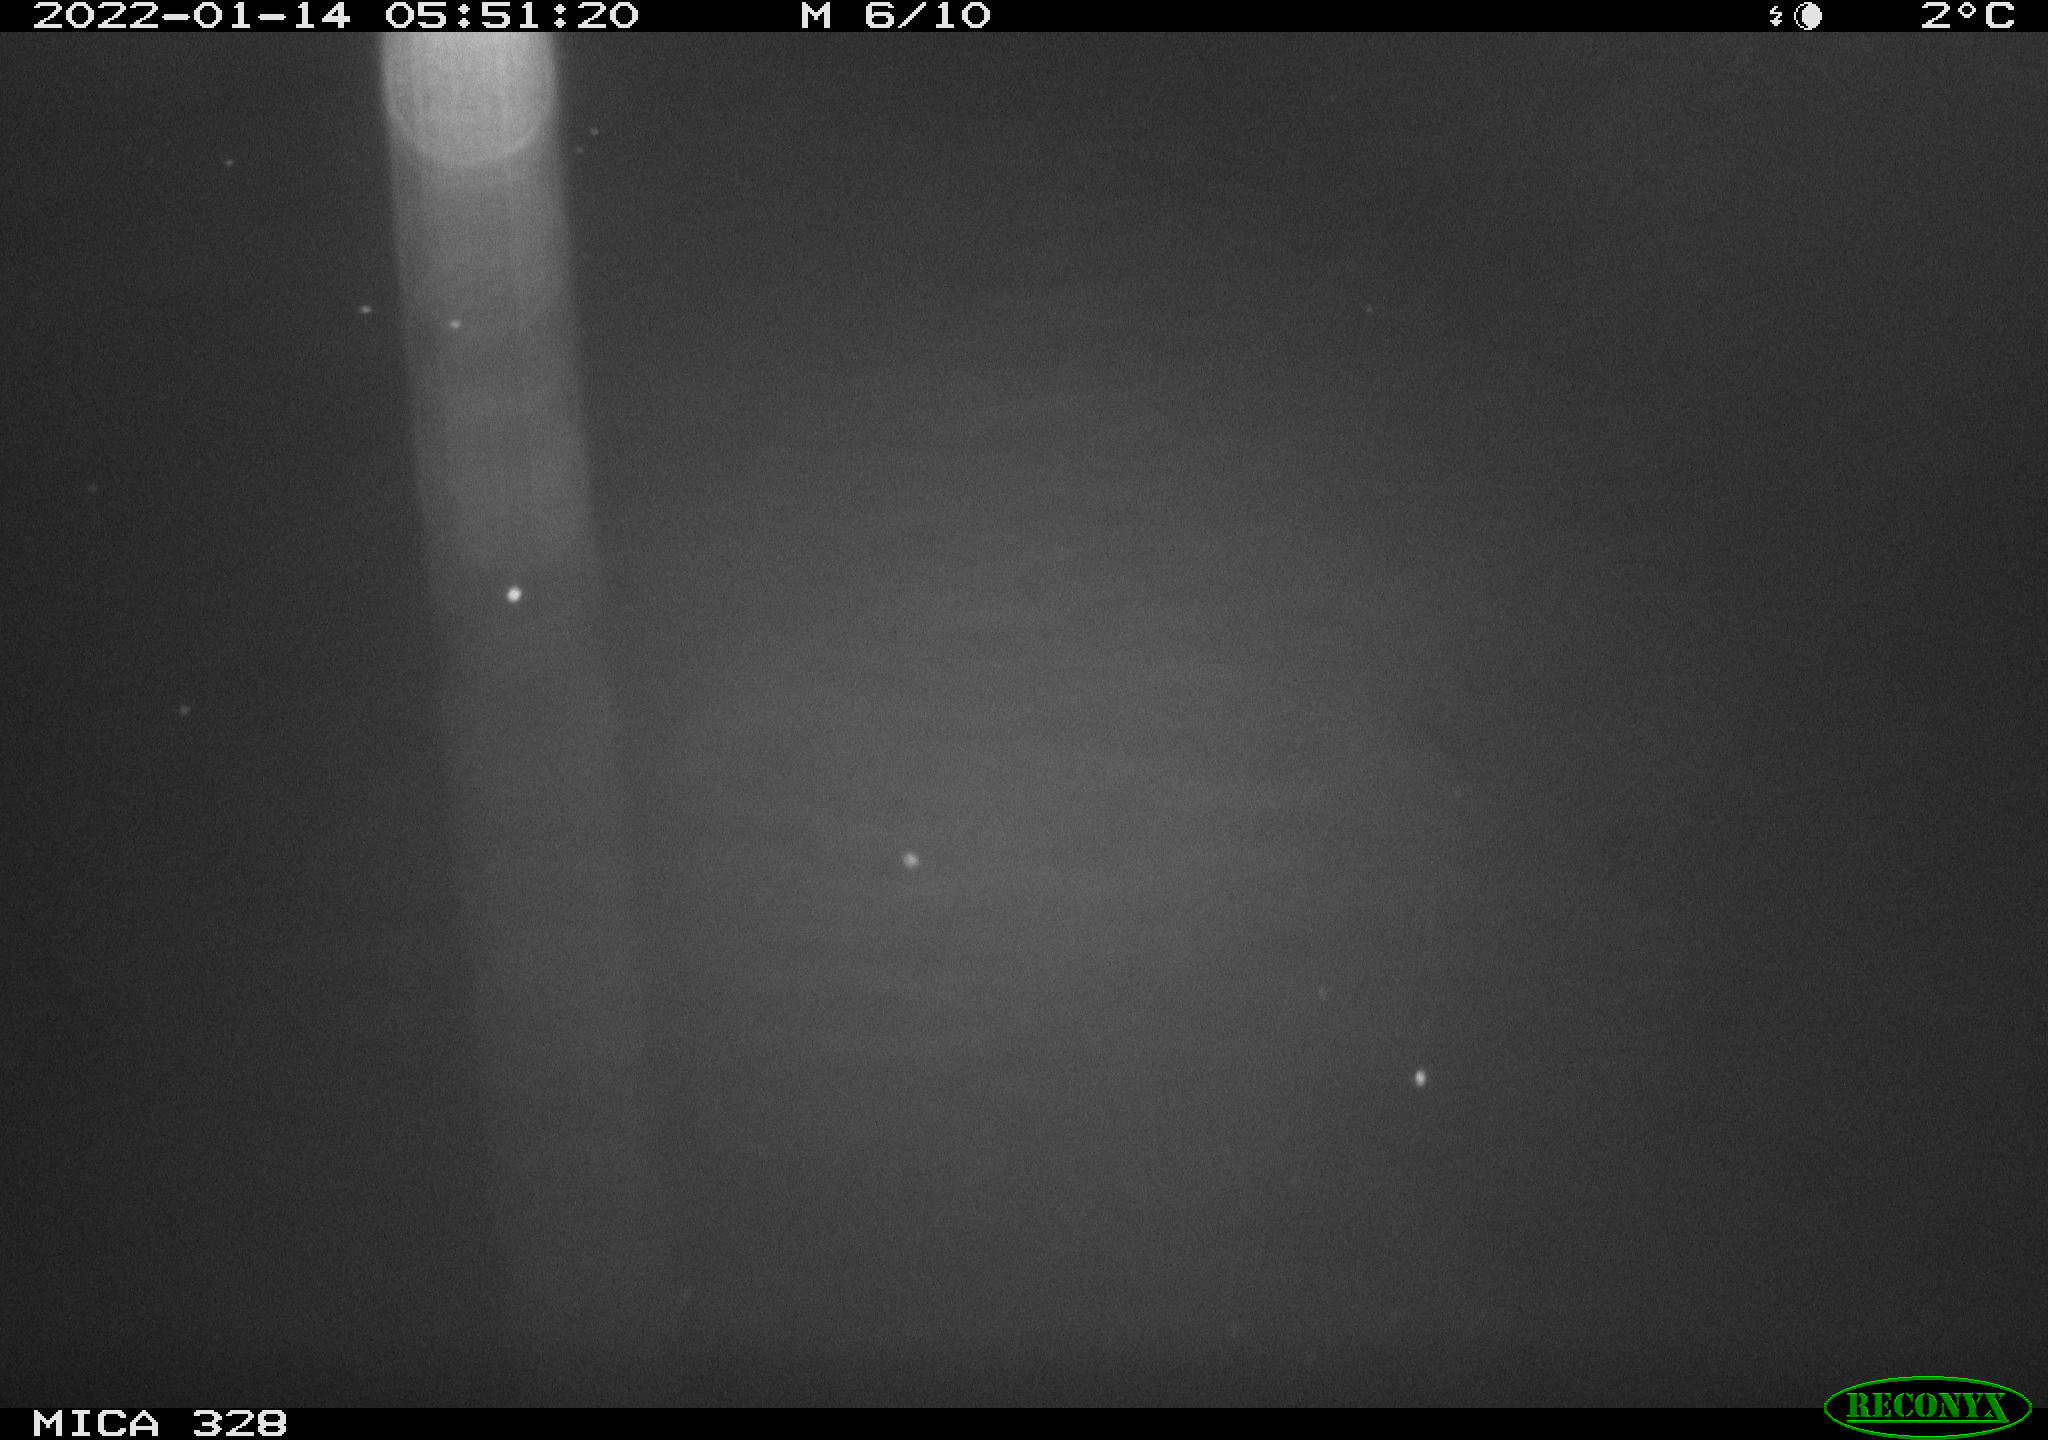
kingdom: Animalia
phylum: Chordata
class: Mammalia
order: Rodentia
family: Cricetidae
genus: Ondatra
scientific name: Ondatra zibethicus
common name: Muskrat
